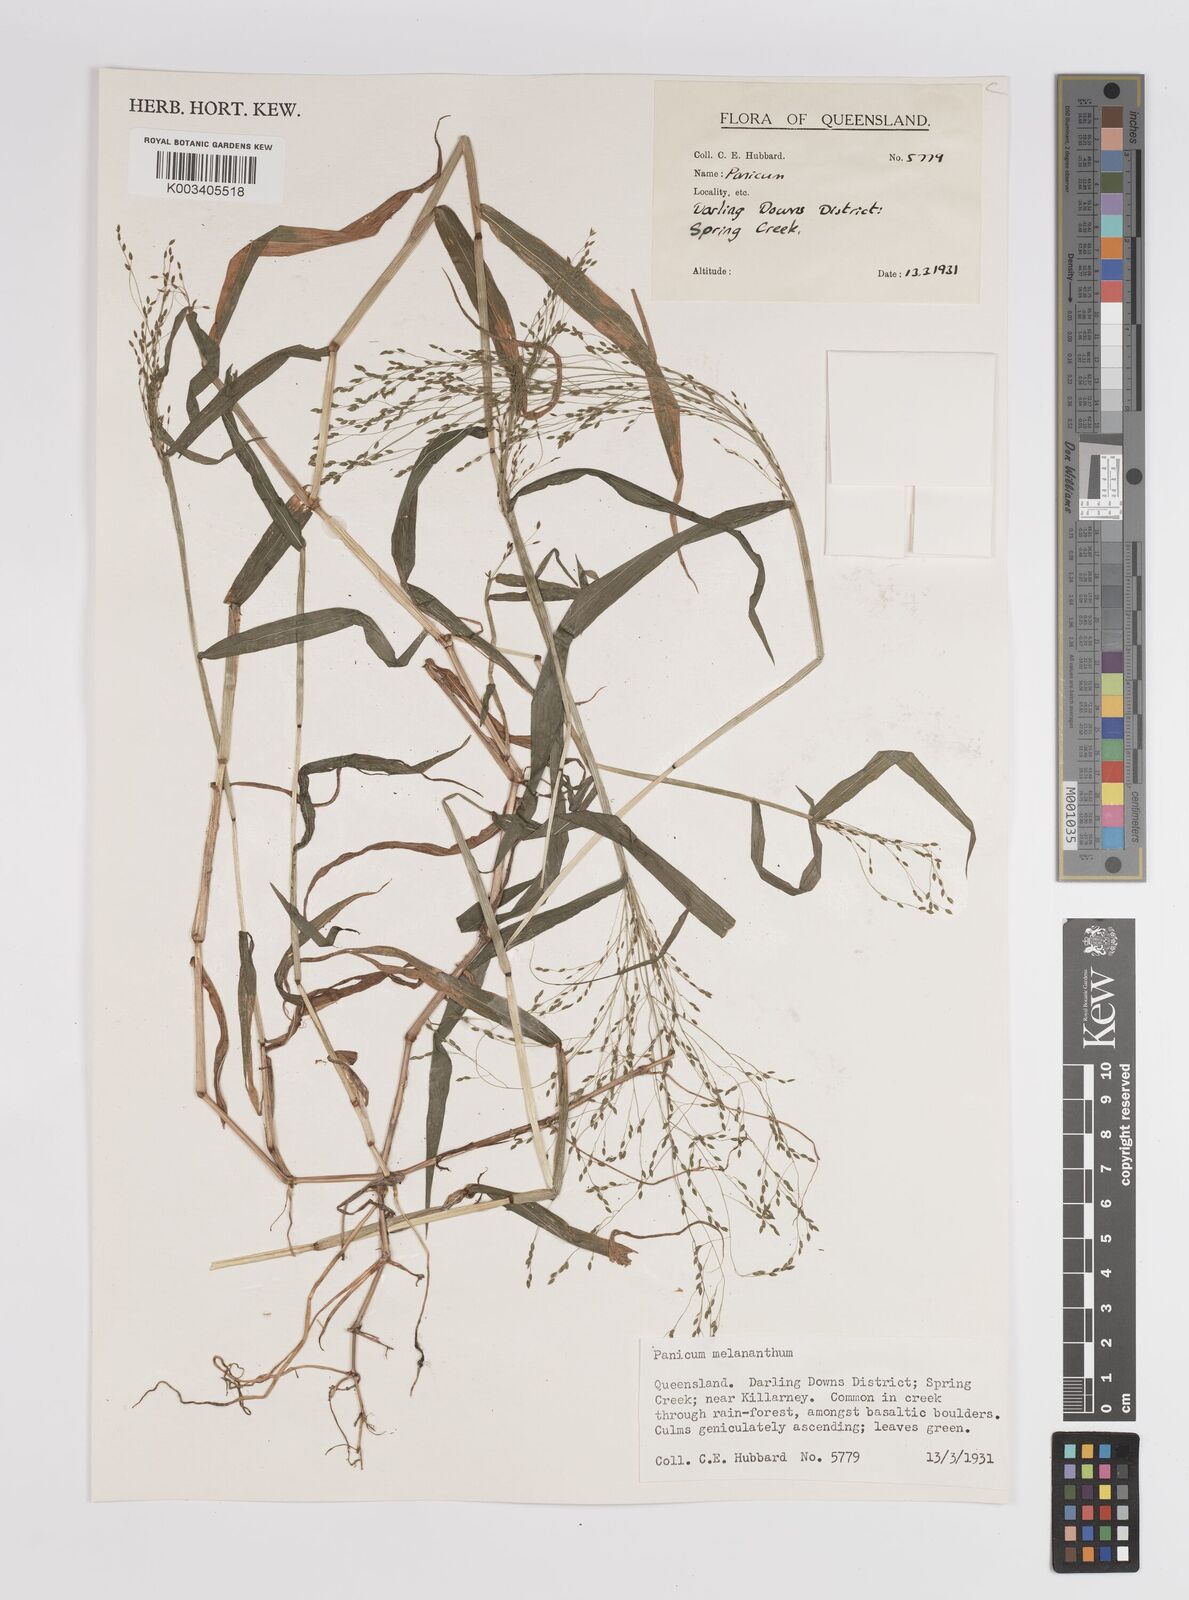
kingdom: Plantae
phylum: Tracheophyta
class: Liliopsida
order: Poales
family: Poaceae
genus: Panicum
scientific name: Panicum
